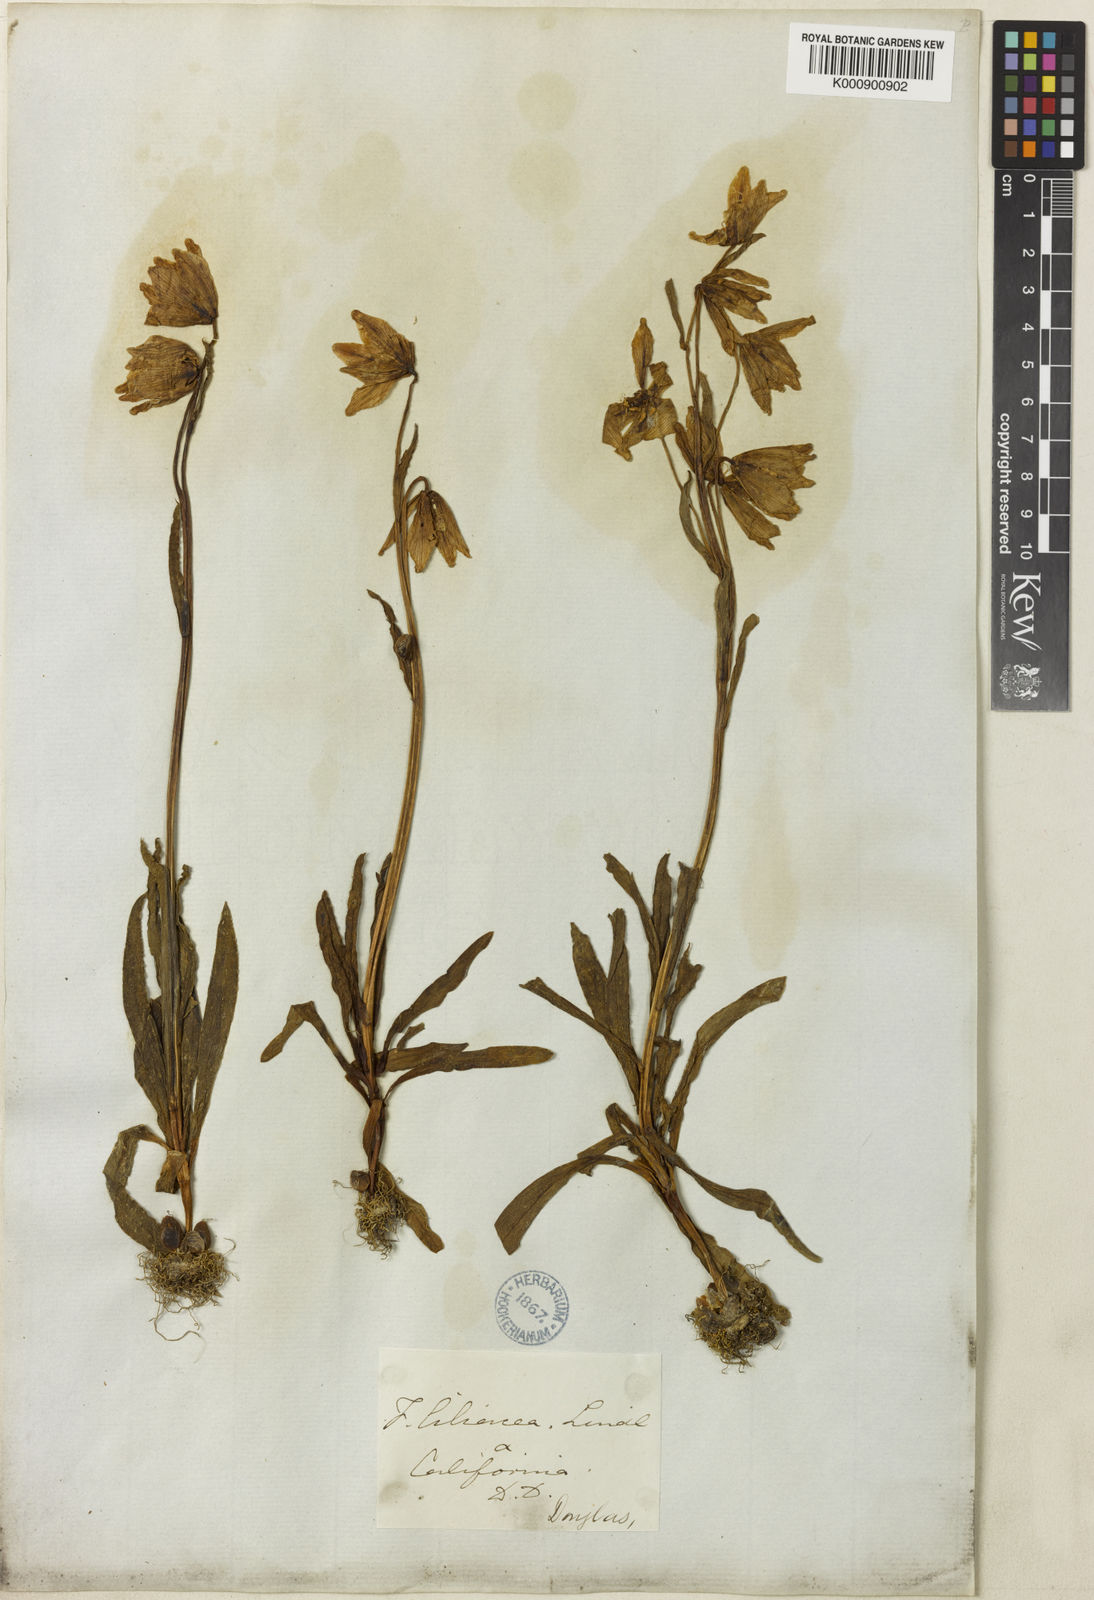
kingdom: Plantae
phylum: Tracheophyta
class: Liliopsida
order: Liliales
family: Liliaceae
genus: Fritillaria
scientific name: Fritillaria liliacea
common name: Fragrant fritillary
